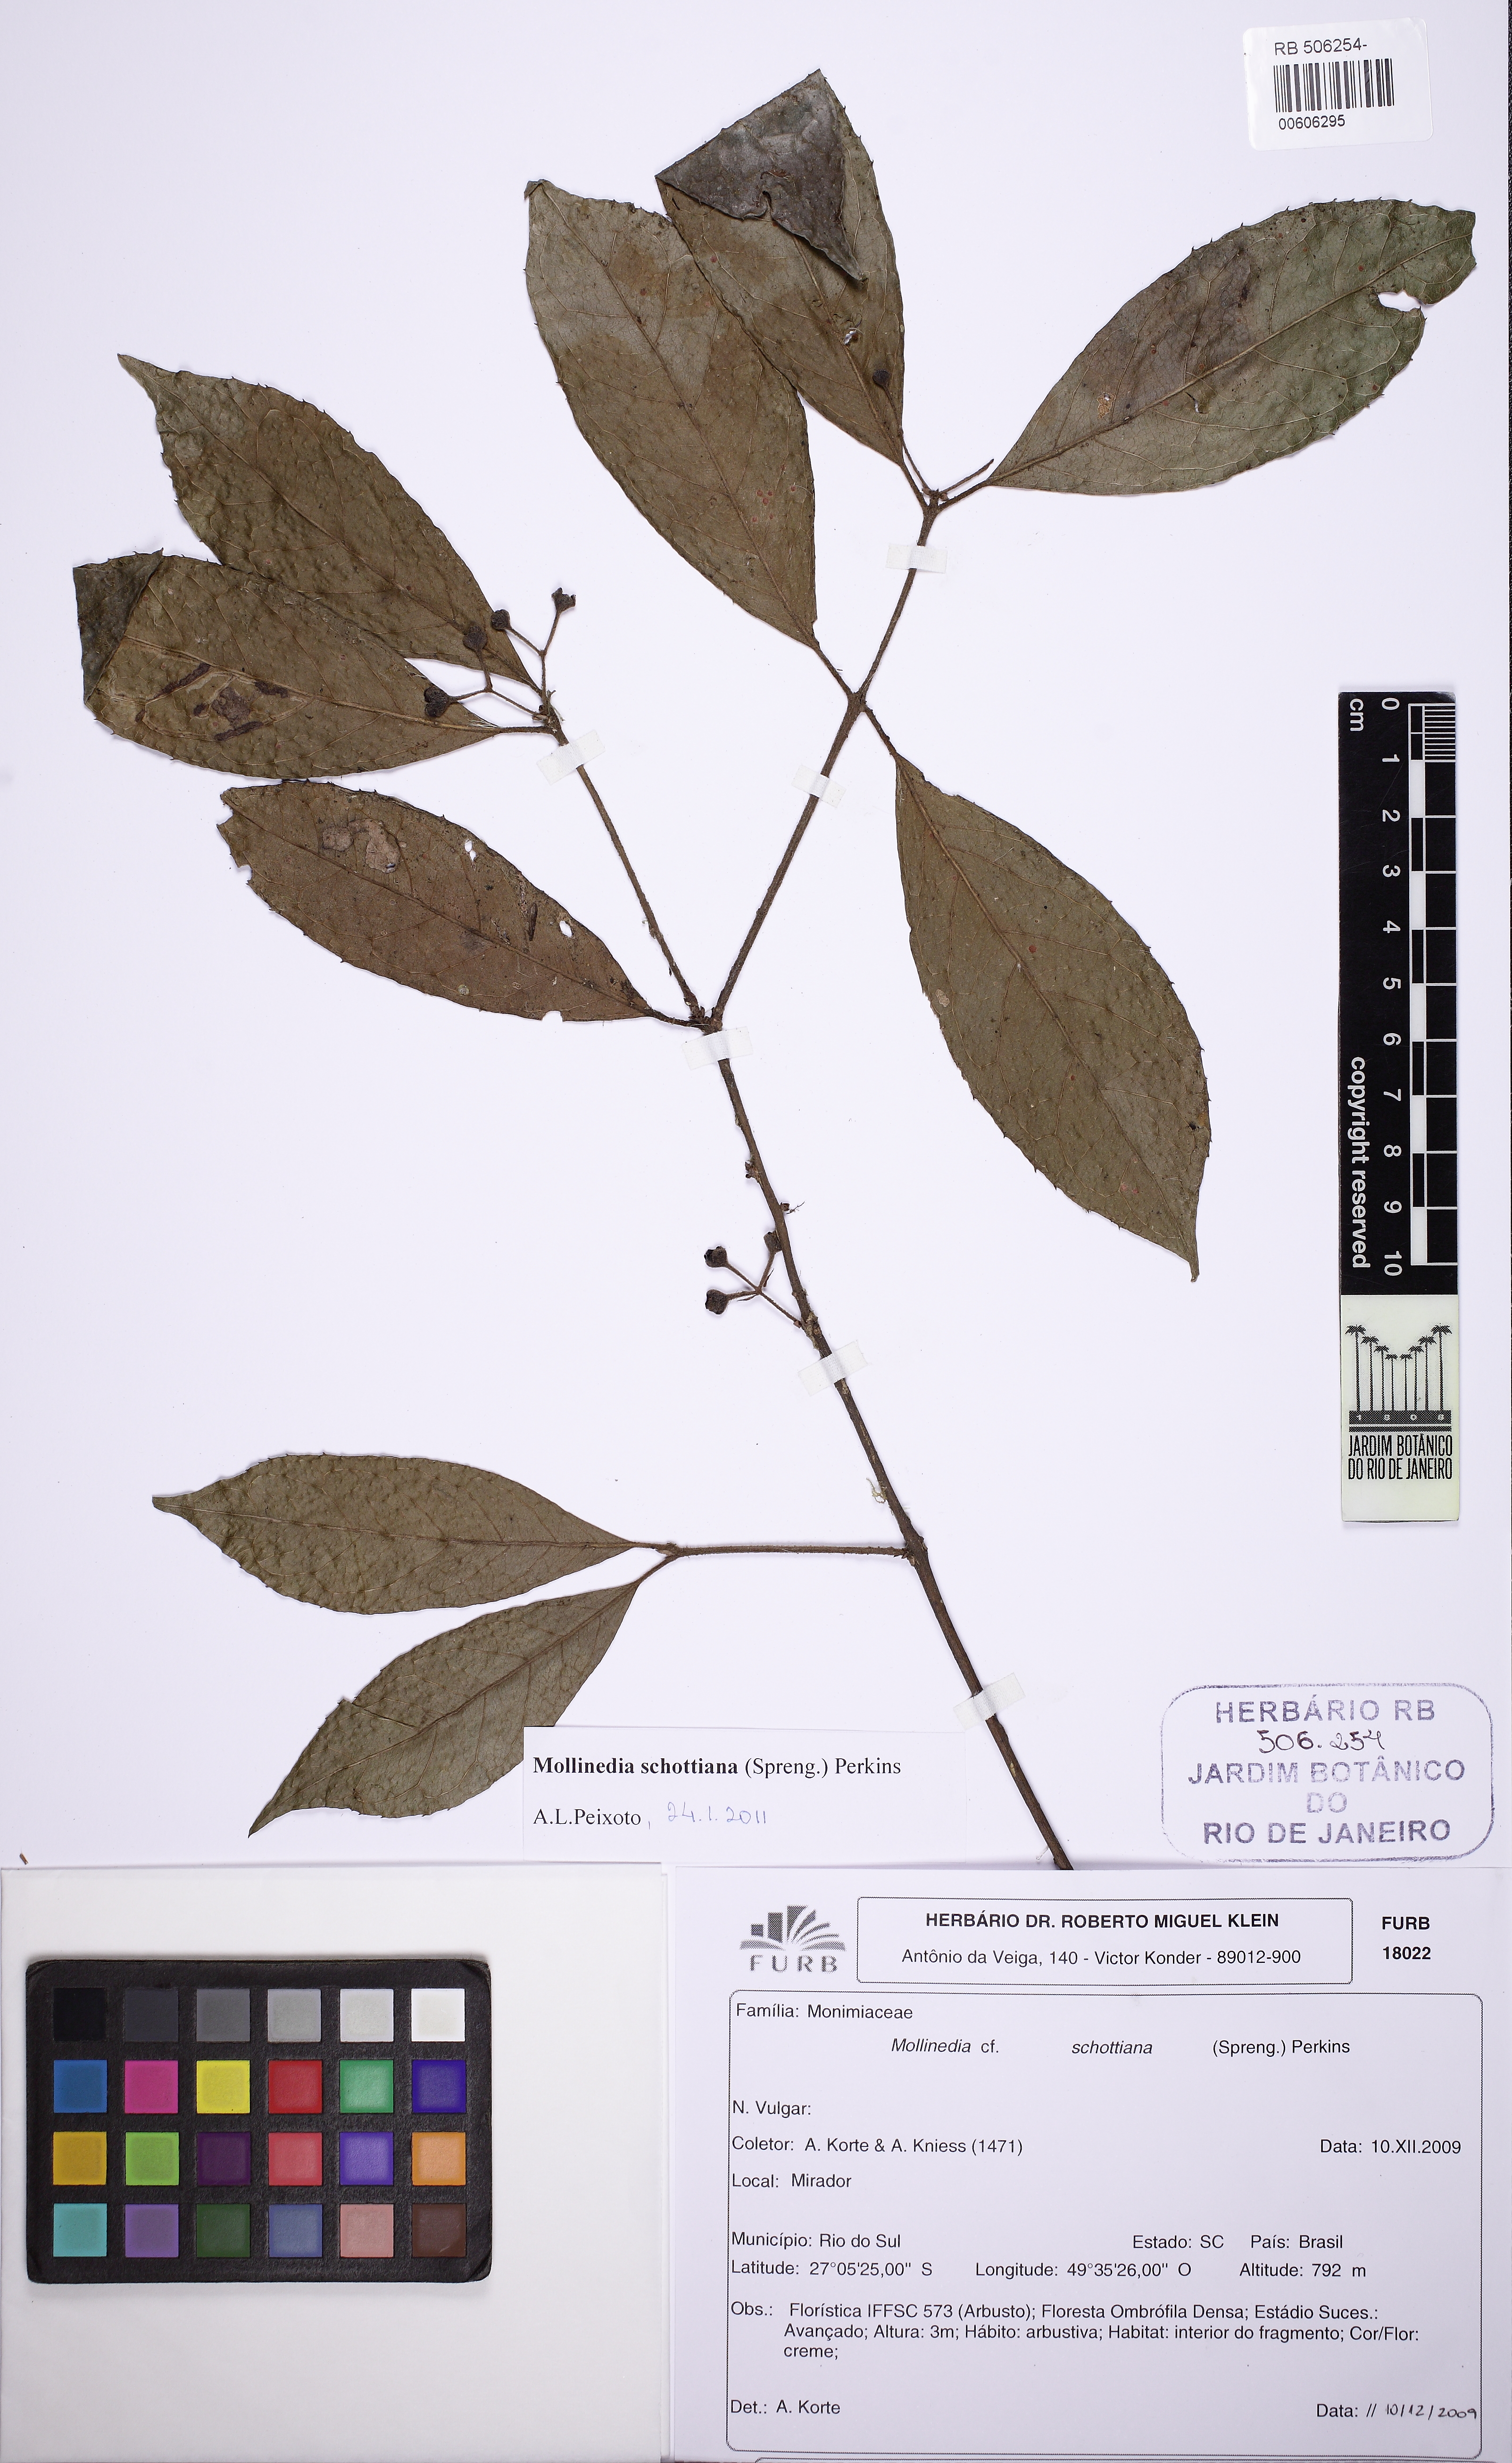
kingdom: Plantae
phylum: Tracheophyta
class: Magnoliopsida
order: Laurales
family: Monimiaceae
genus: Mollinedia
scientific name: Mollinedia umbellata
